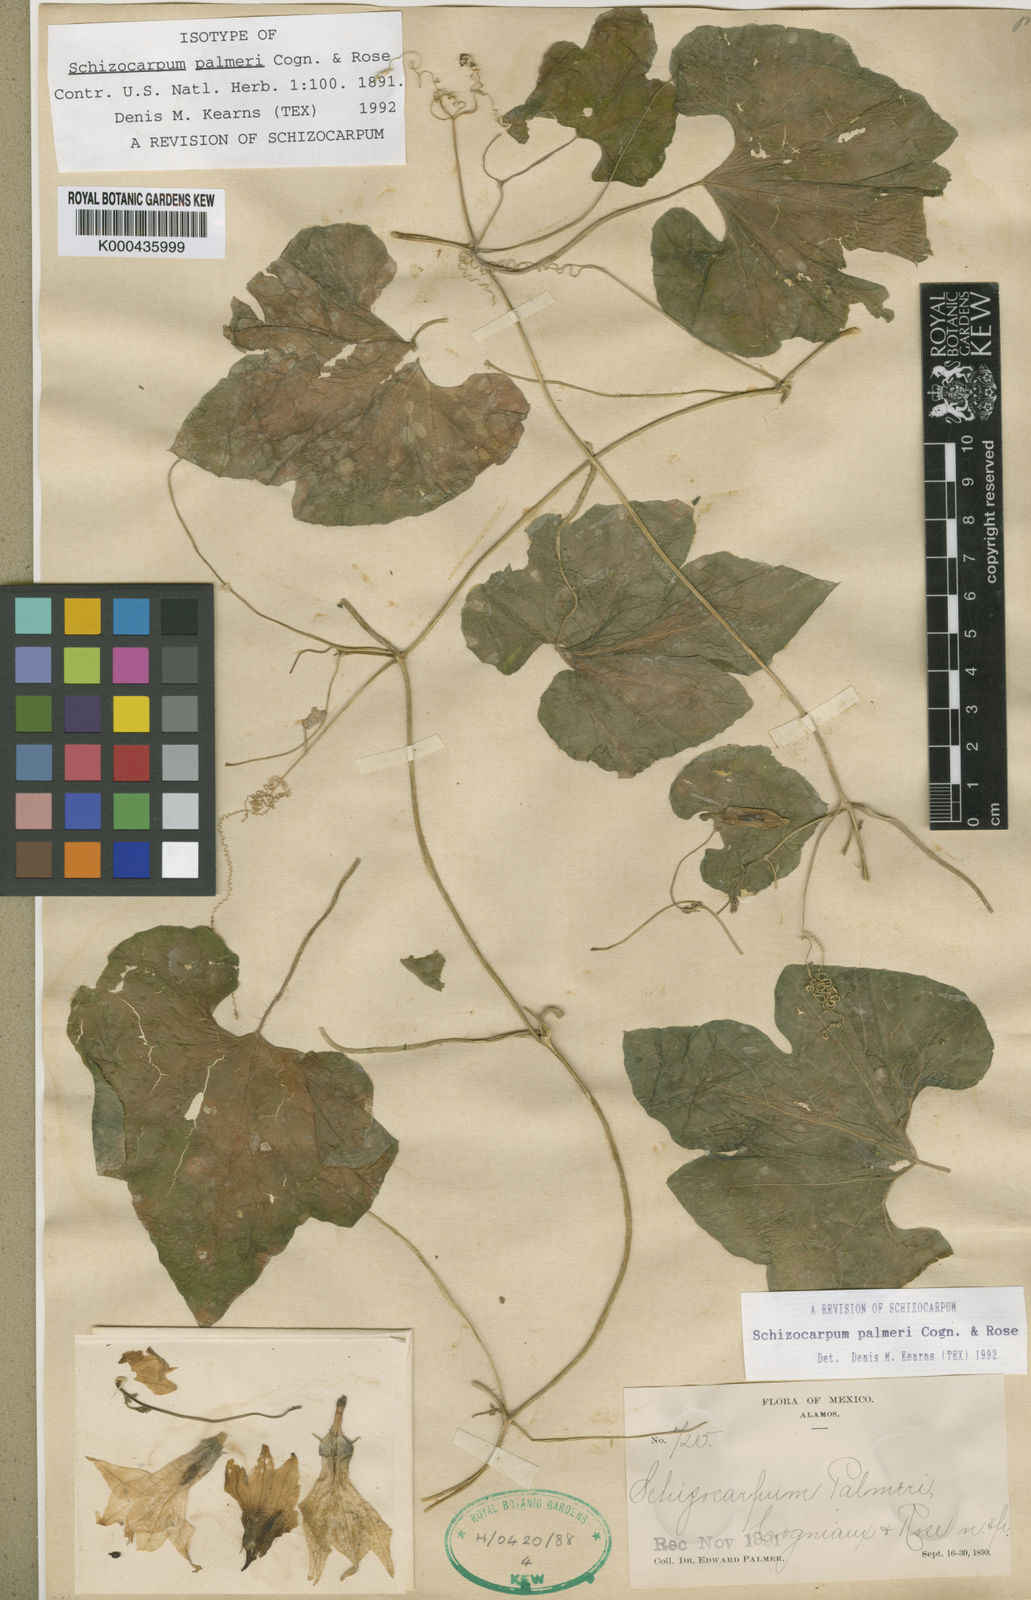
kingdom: Plantae
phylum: Tracheophyta
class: Magnoliopsida
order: Cucurbitales
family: Cucurbitaceae
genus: Schizocarpum
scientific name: Schizocarpum palmeri
